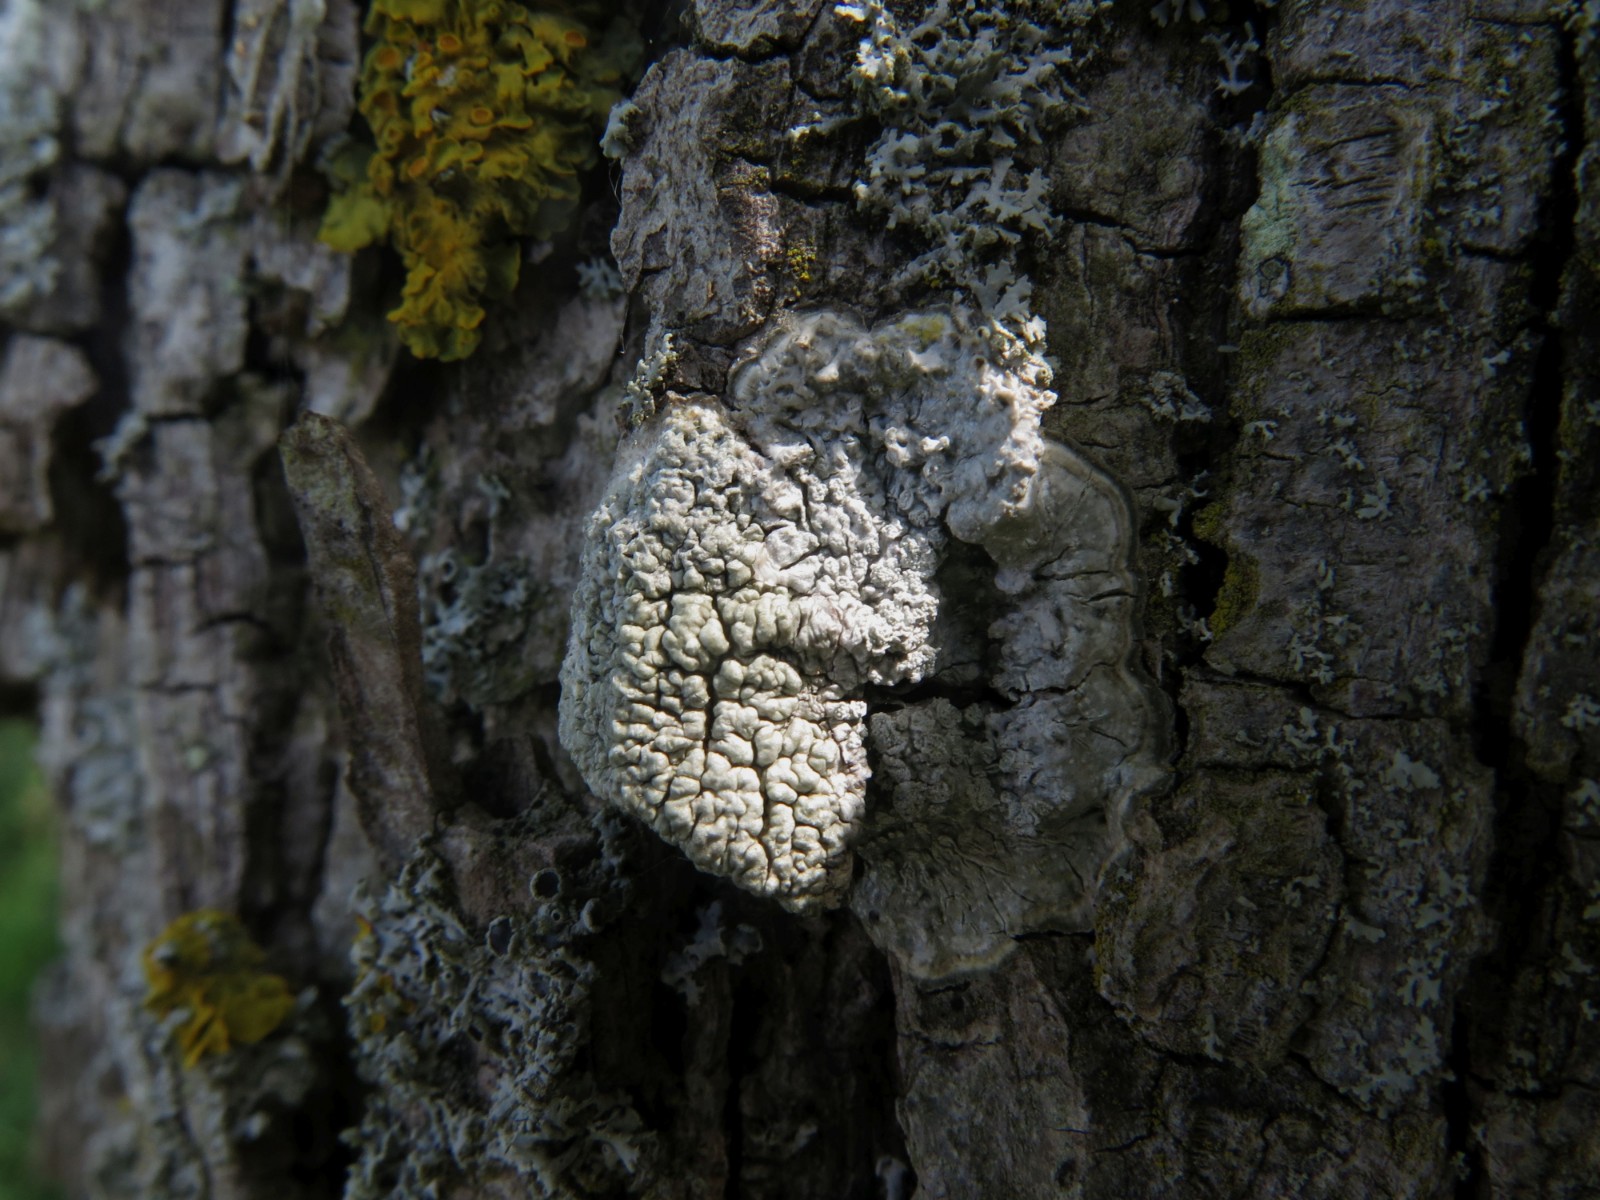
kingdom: Fungi
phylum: Ascomycota
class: Lecanoromycetes
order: Pertusariales
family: Pertusariaceae
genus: Pertusaria
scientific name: Pertusaria pertusa
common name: almindelig prikvortelav
